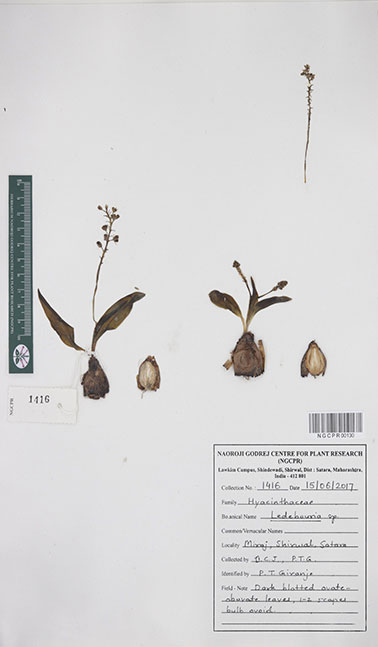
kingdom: Plantae
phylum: Tracheophyta
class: Liliopsida
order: Asparagales
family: Asparagaceae
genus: Ledebouria
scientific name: Ledebouria
